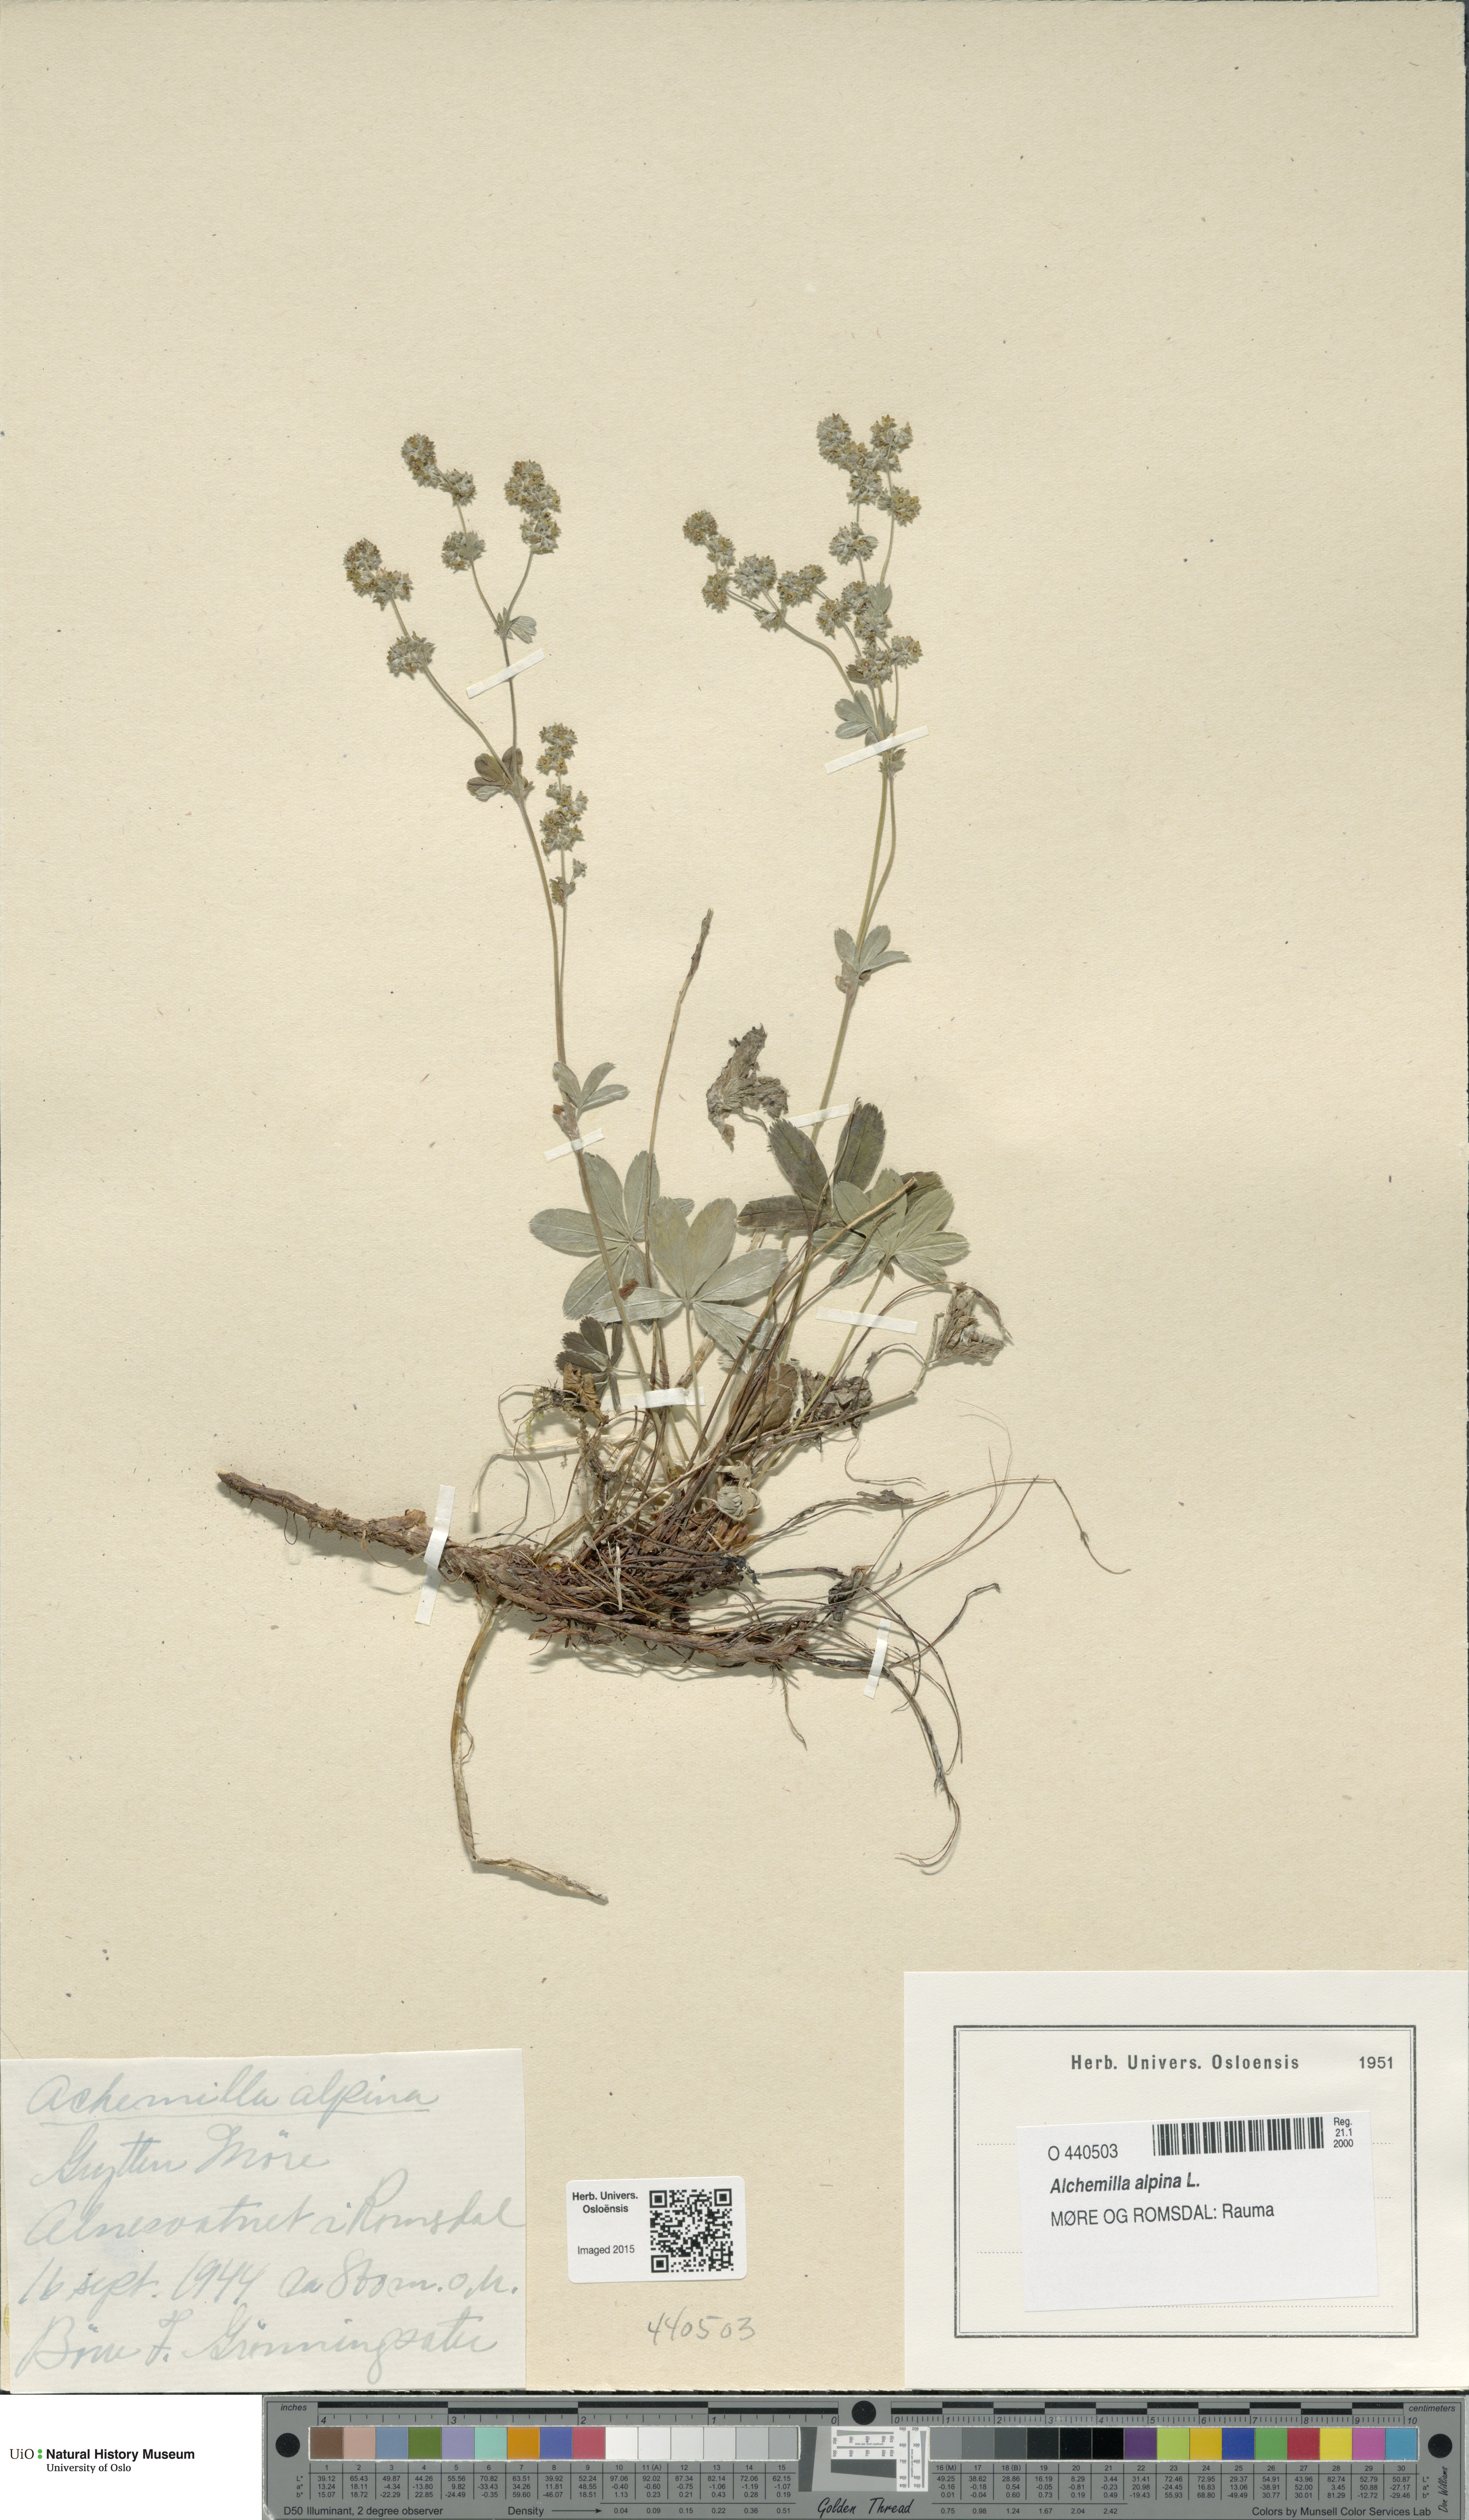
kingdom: Plantae
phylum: Tracheophyta
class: Magnoliopsida
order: Rosales
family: Rosaceae
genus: Alchemilla
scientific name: Alchemilla alpina
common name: Alpine lady's-mantle
